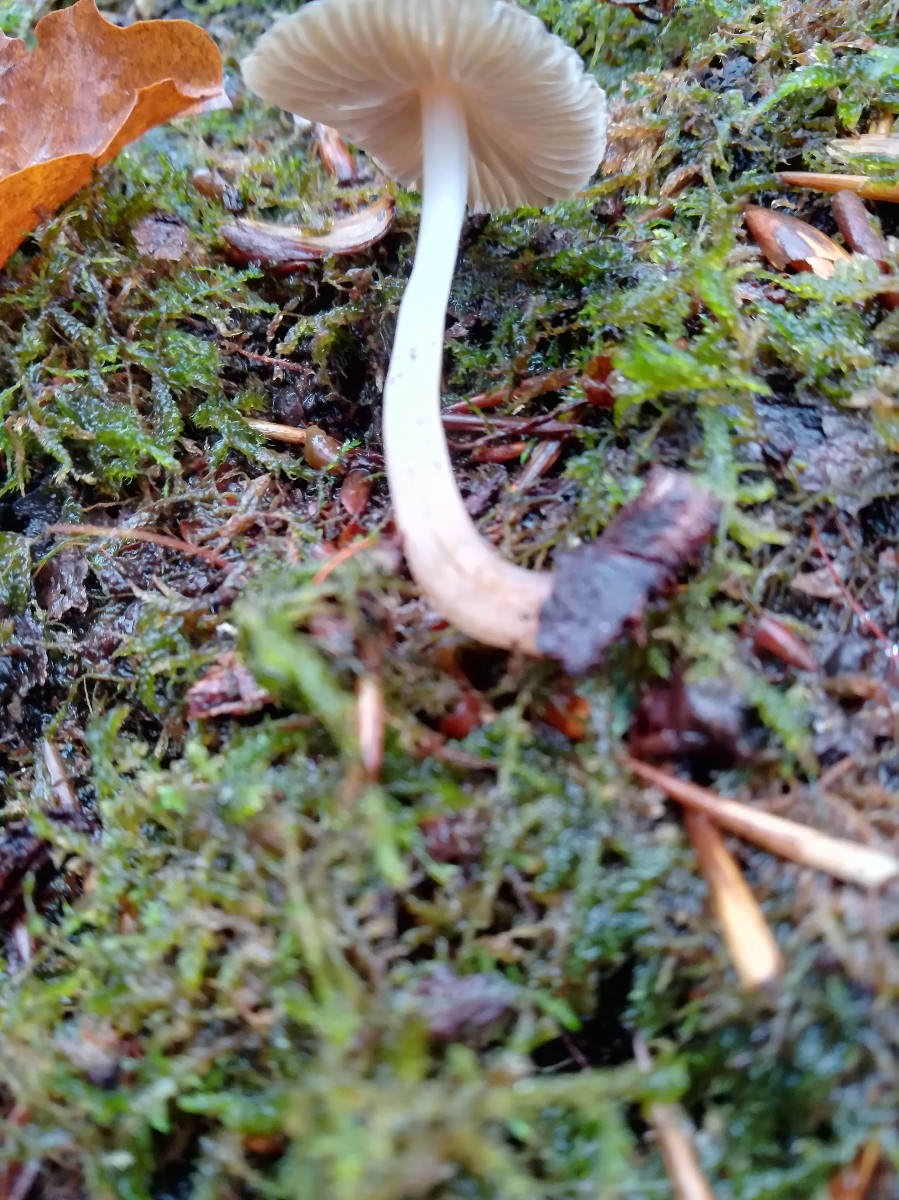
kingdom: Fungi
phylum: Basidiomycota
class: Agaricomycetes
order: Agaricales
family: Mycenaceae
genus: Mycena
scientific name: Mycena polygramma
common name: mangestribet huesvamp
